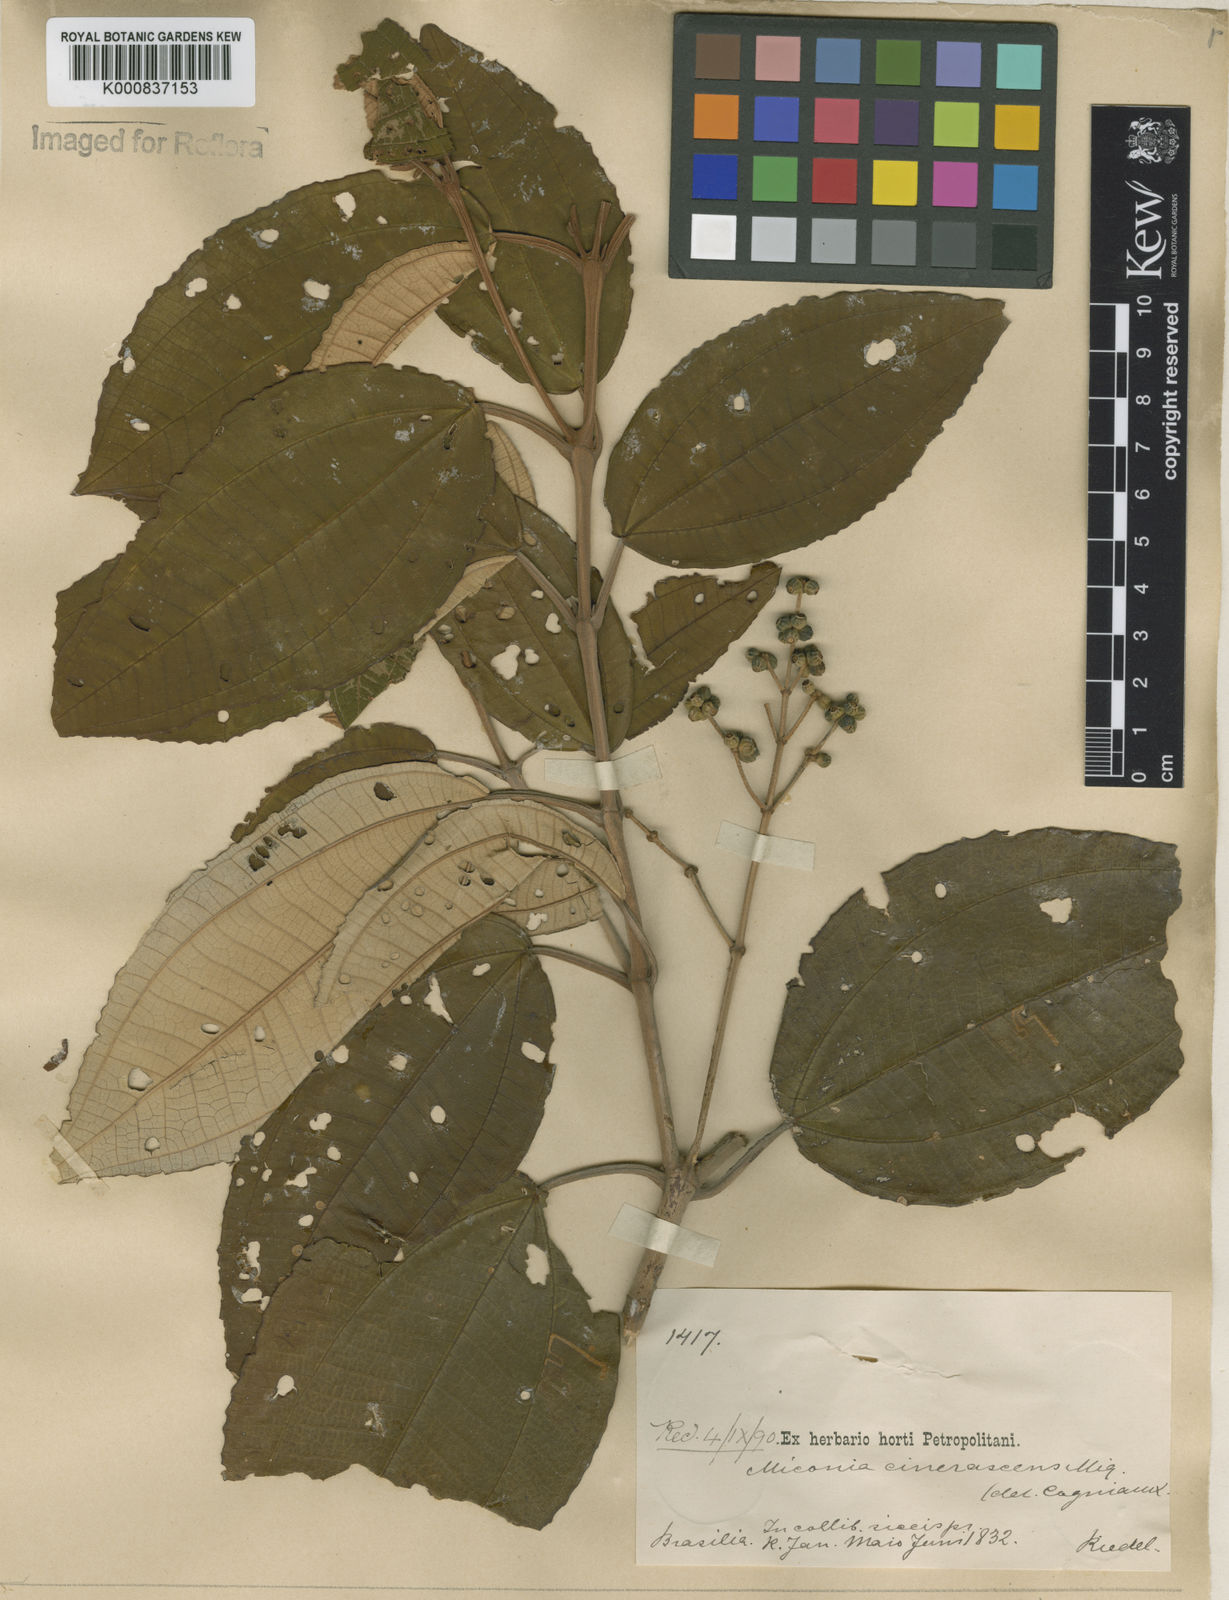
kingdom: Plantae
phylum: Tracheophyta
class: Magnoliopsida
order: Myrtales
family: Melastomataceae
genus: Miconia
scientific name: Miconia cinerascens
